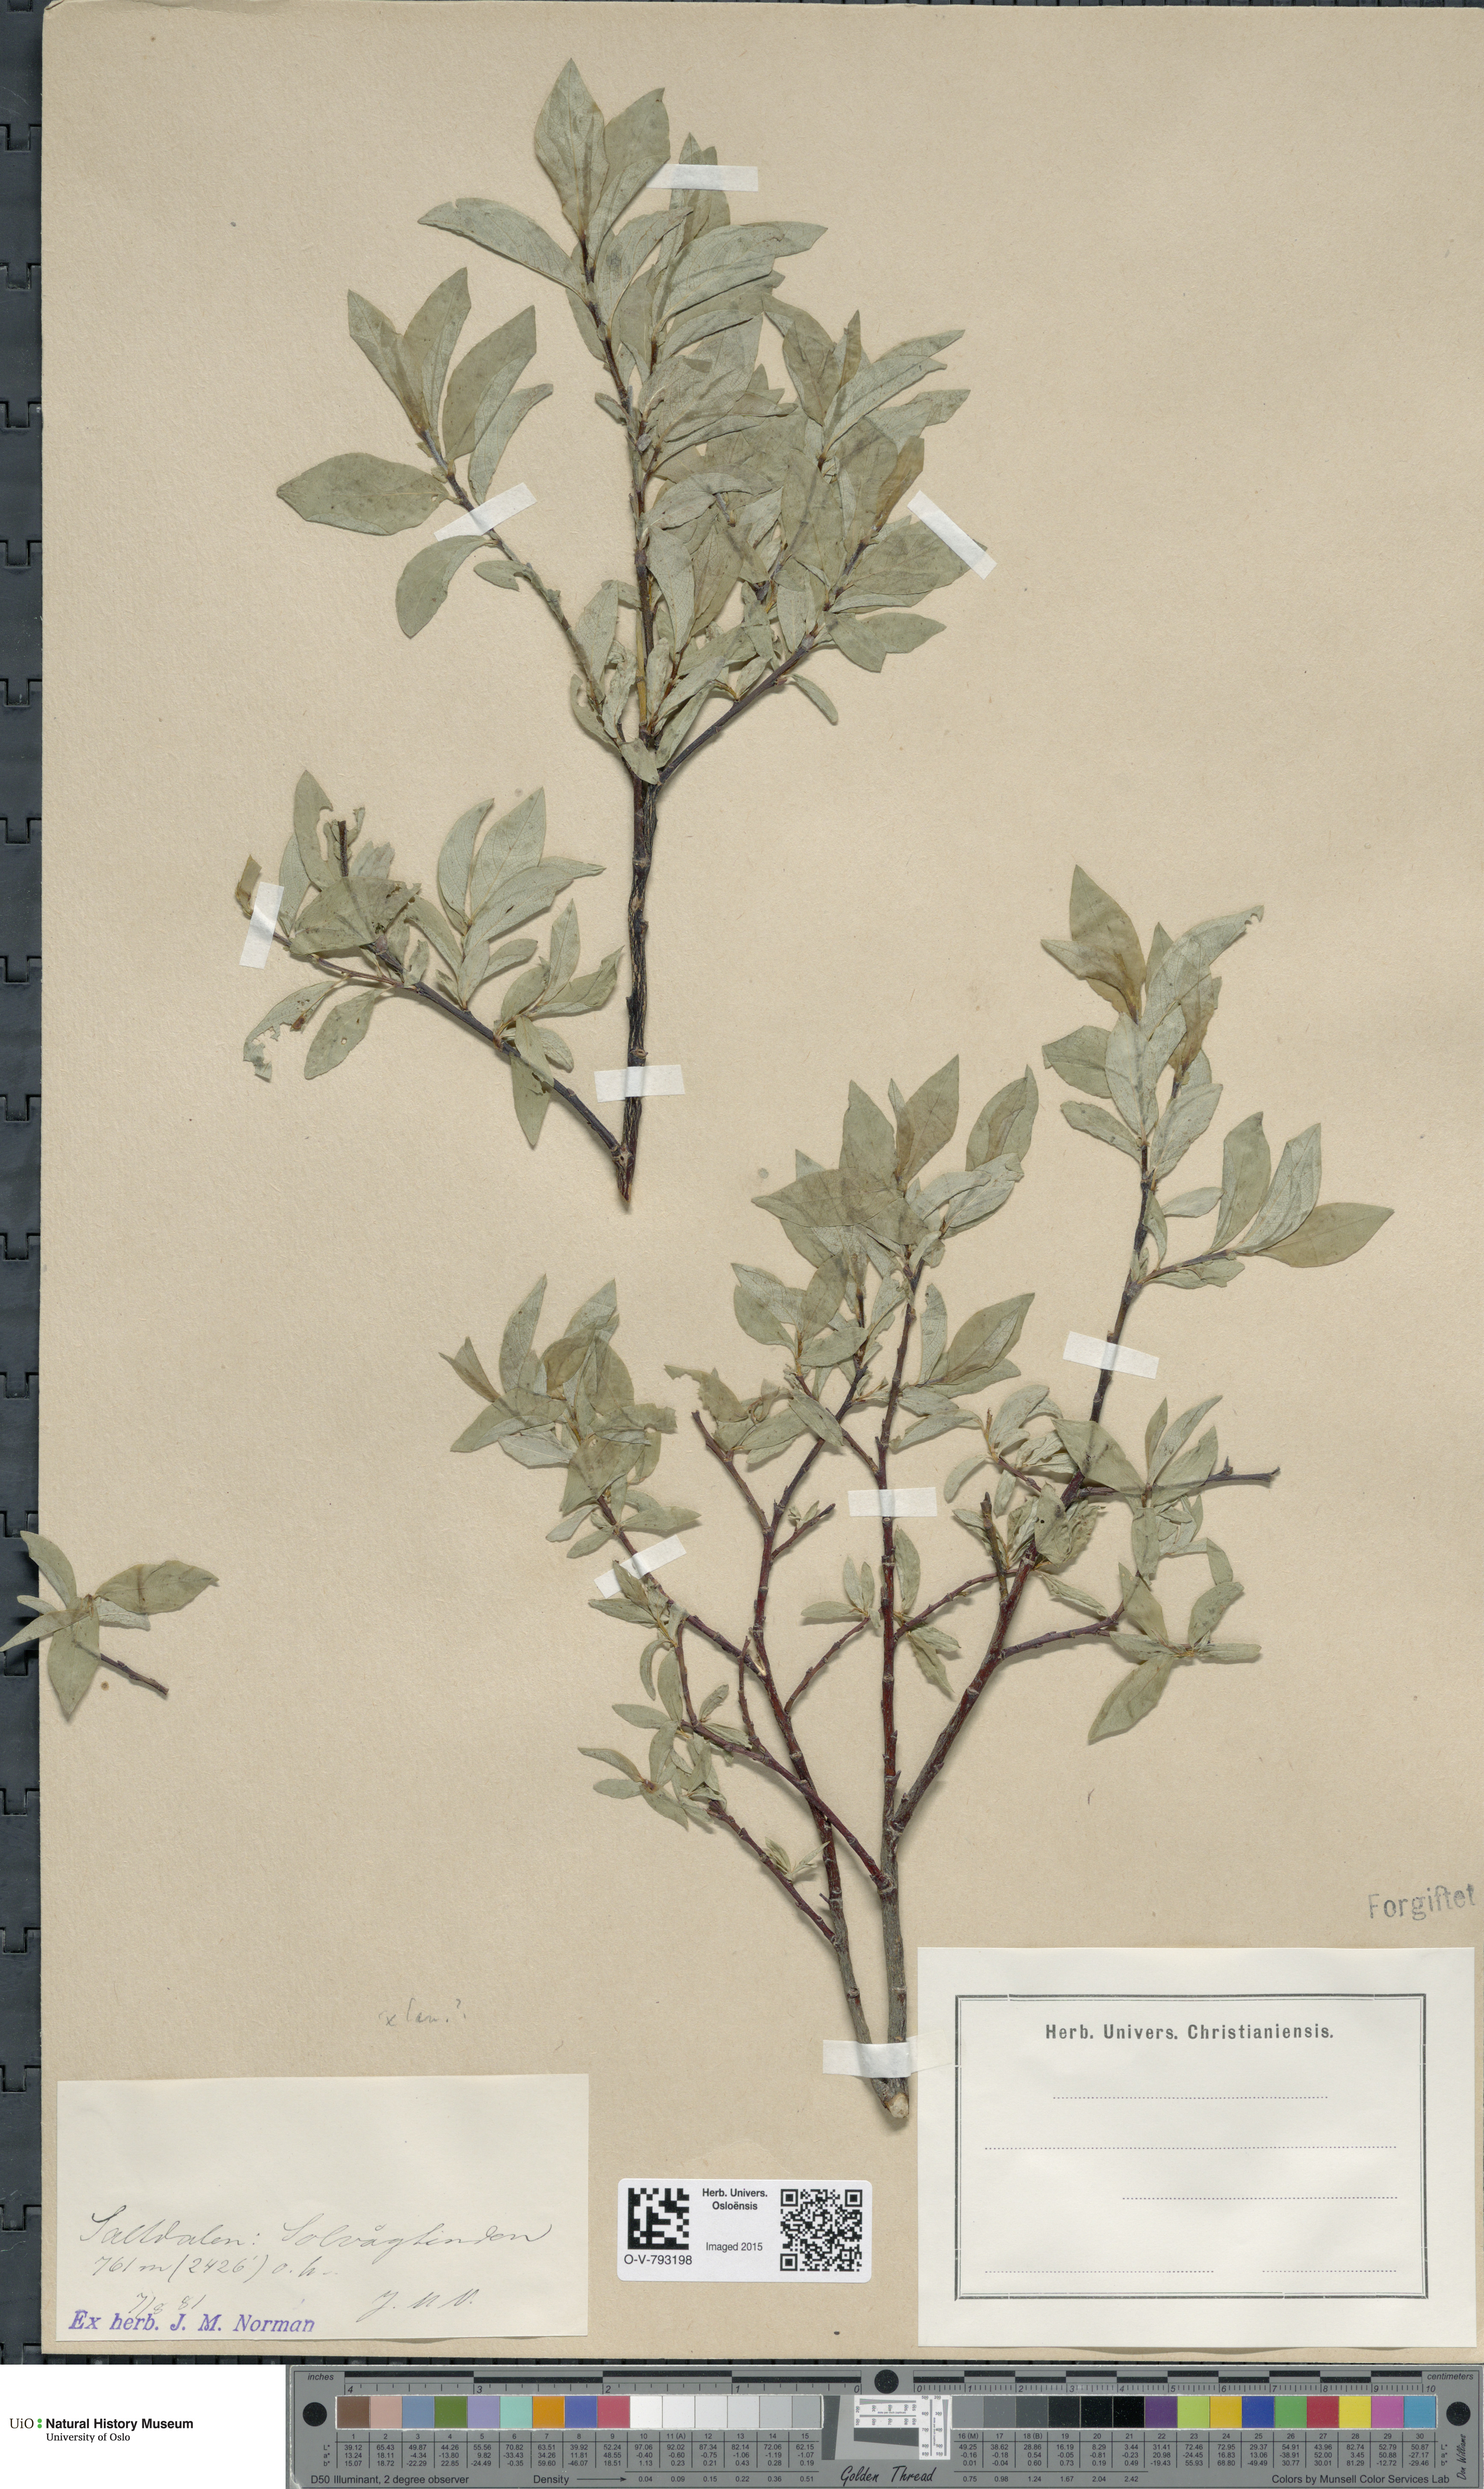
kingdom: Plantae
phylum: Tracheophyta
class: Magnoliopsida
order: Malpighiales
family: Salicaceae
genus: Salix
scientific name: Salix hastata
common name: Halberd willow
